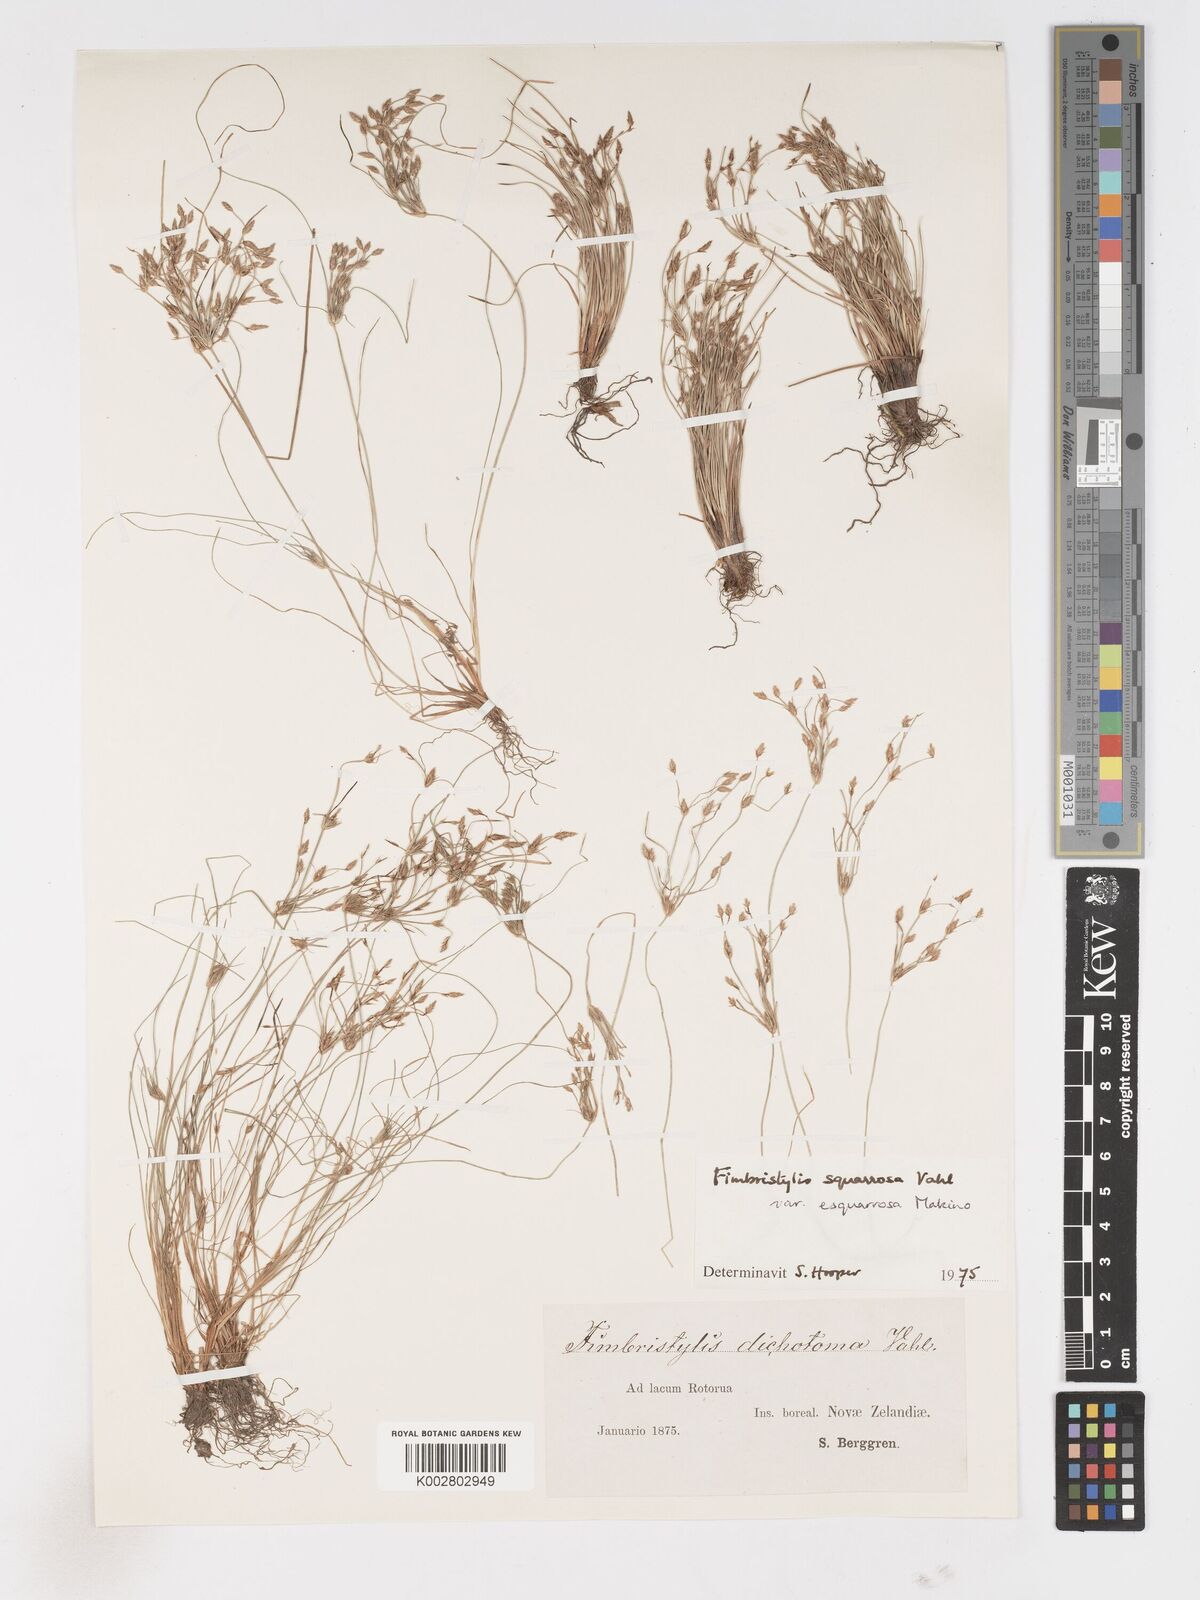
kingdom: Plantae
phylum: Tracheophyta
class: Liliopsida
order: Poales
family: Cyperaceae
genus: Fimbristylis
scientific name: Fimbristylis velata
